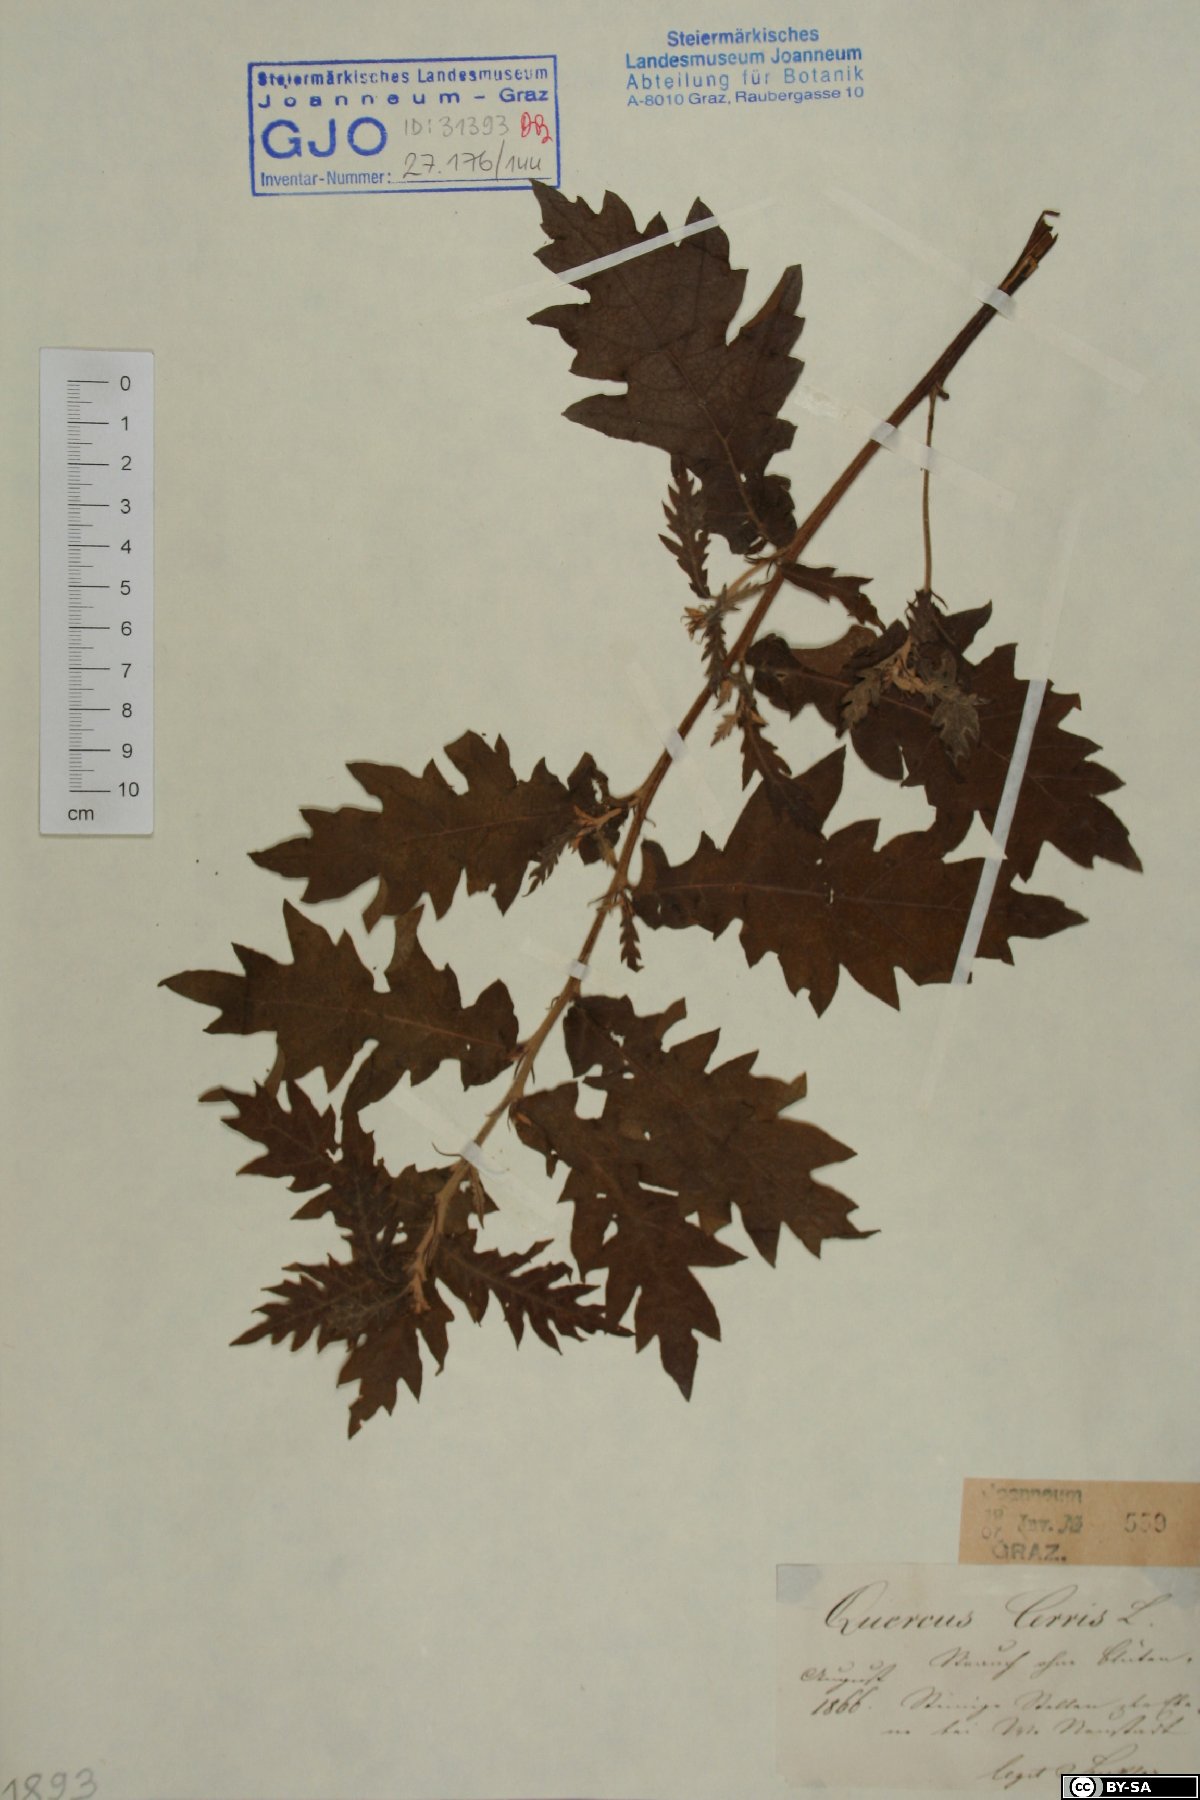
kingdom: Plantae
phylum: Tracheophyta
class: Magnoliopsida
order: Fagales
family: Fagaceae
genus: Quercus
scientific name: Quercus cerris
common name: Turkey oak
